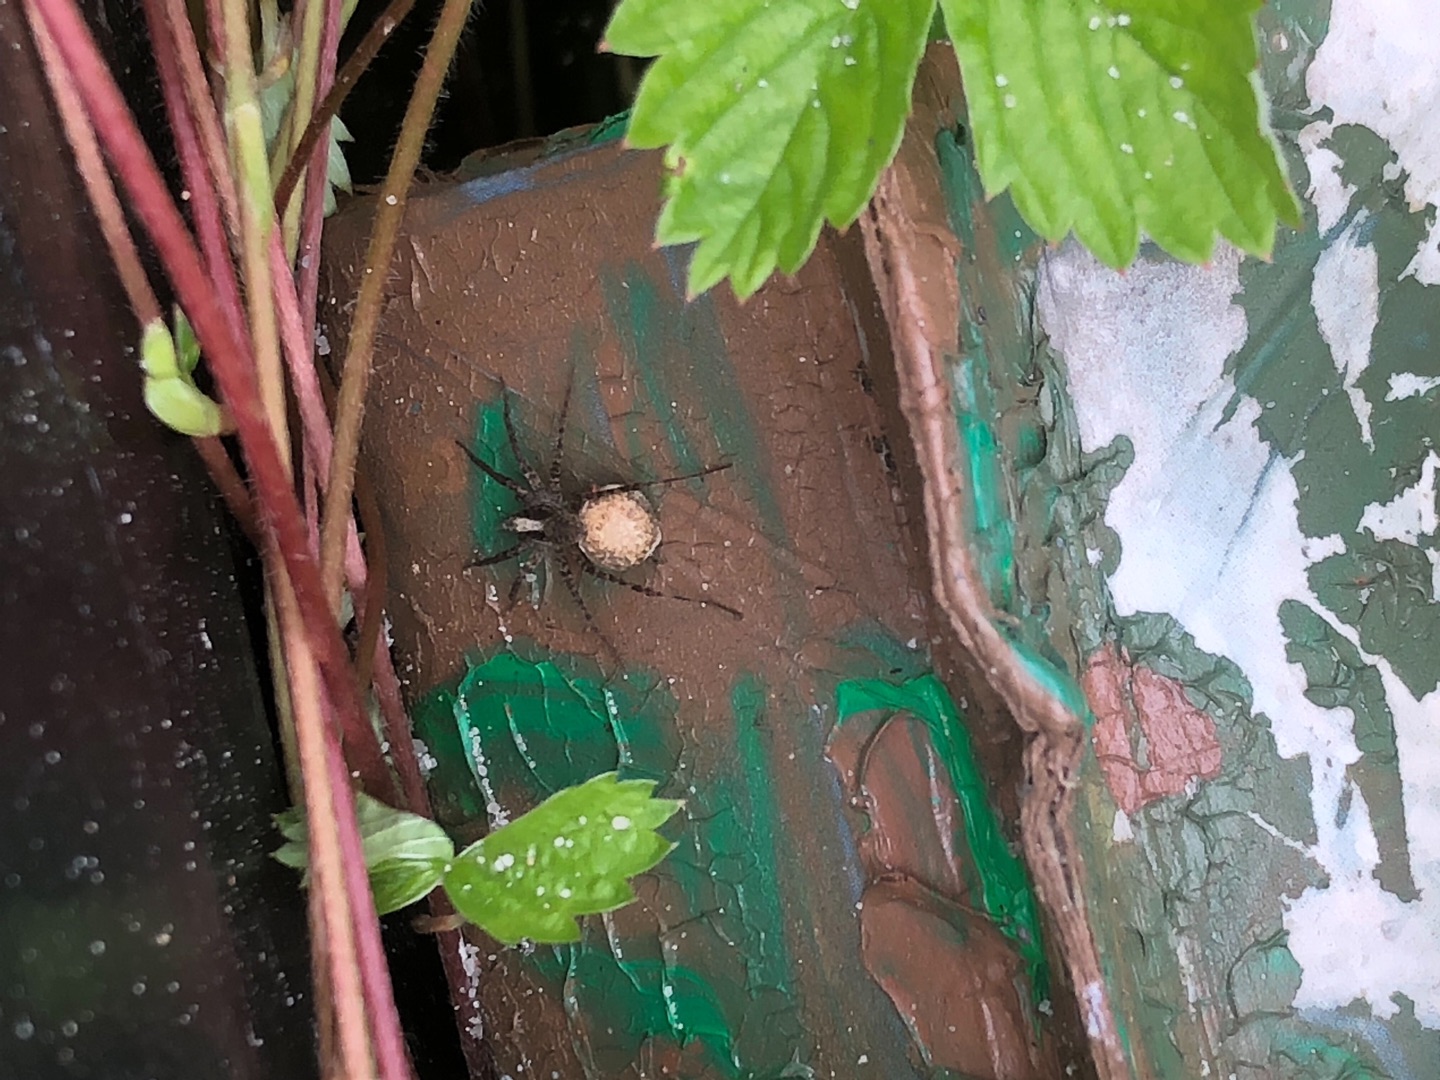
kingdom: Animalia
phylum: Arthropoda
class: Arachnida
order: Araneae
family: Lycosidae
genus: Pardosa
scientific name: Pardosa
